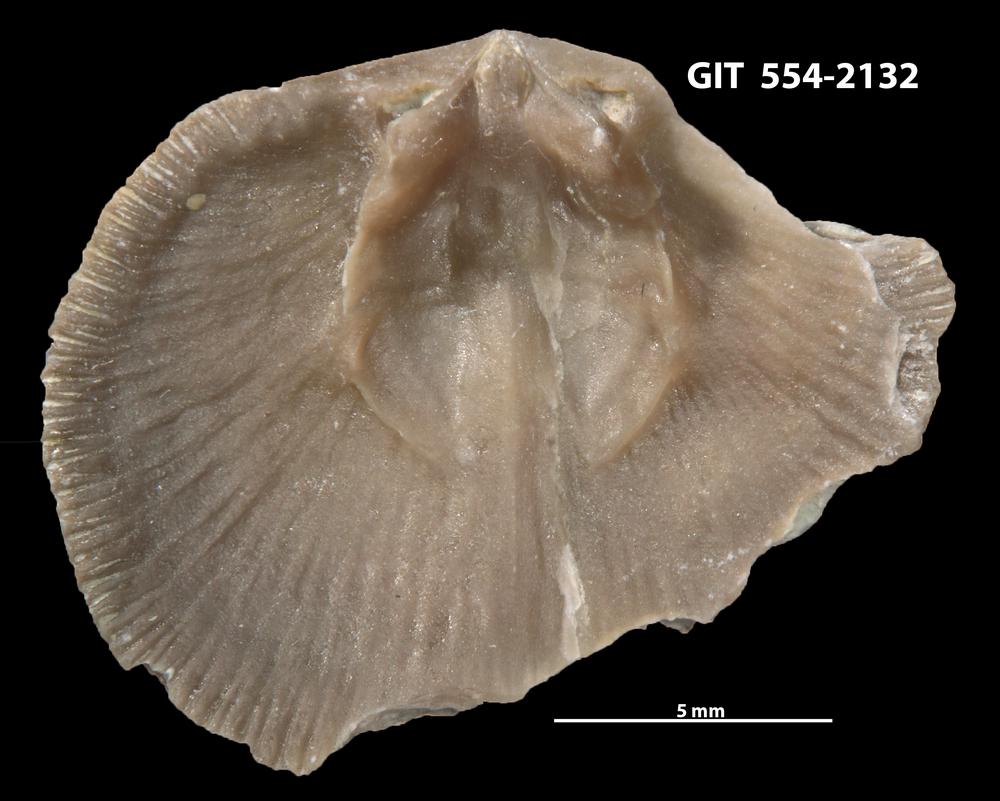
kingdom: Animalia
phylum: Brachiopoda
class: Rhynchonellata
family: Dalmanellidae
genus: Levenea
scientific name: Levenea Orthis canaliculata
